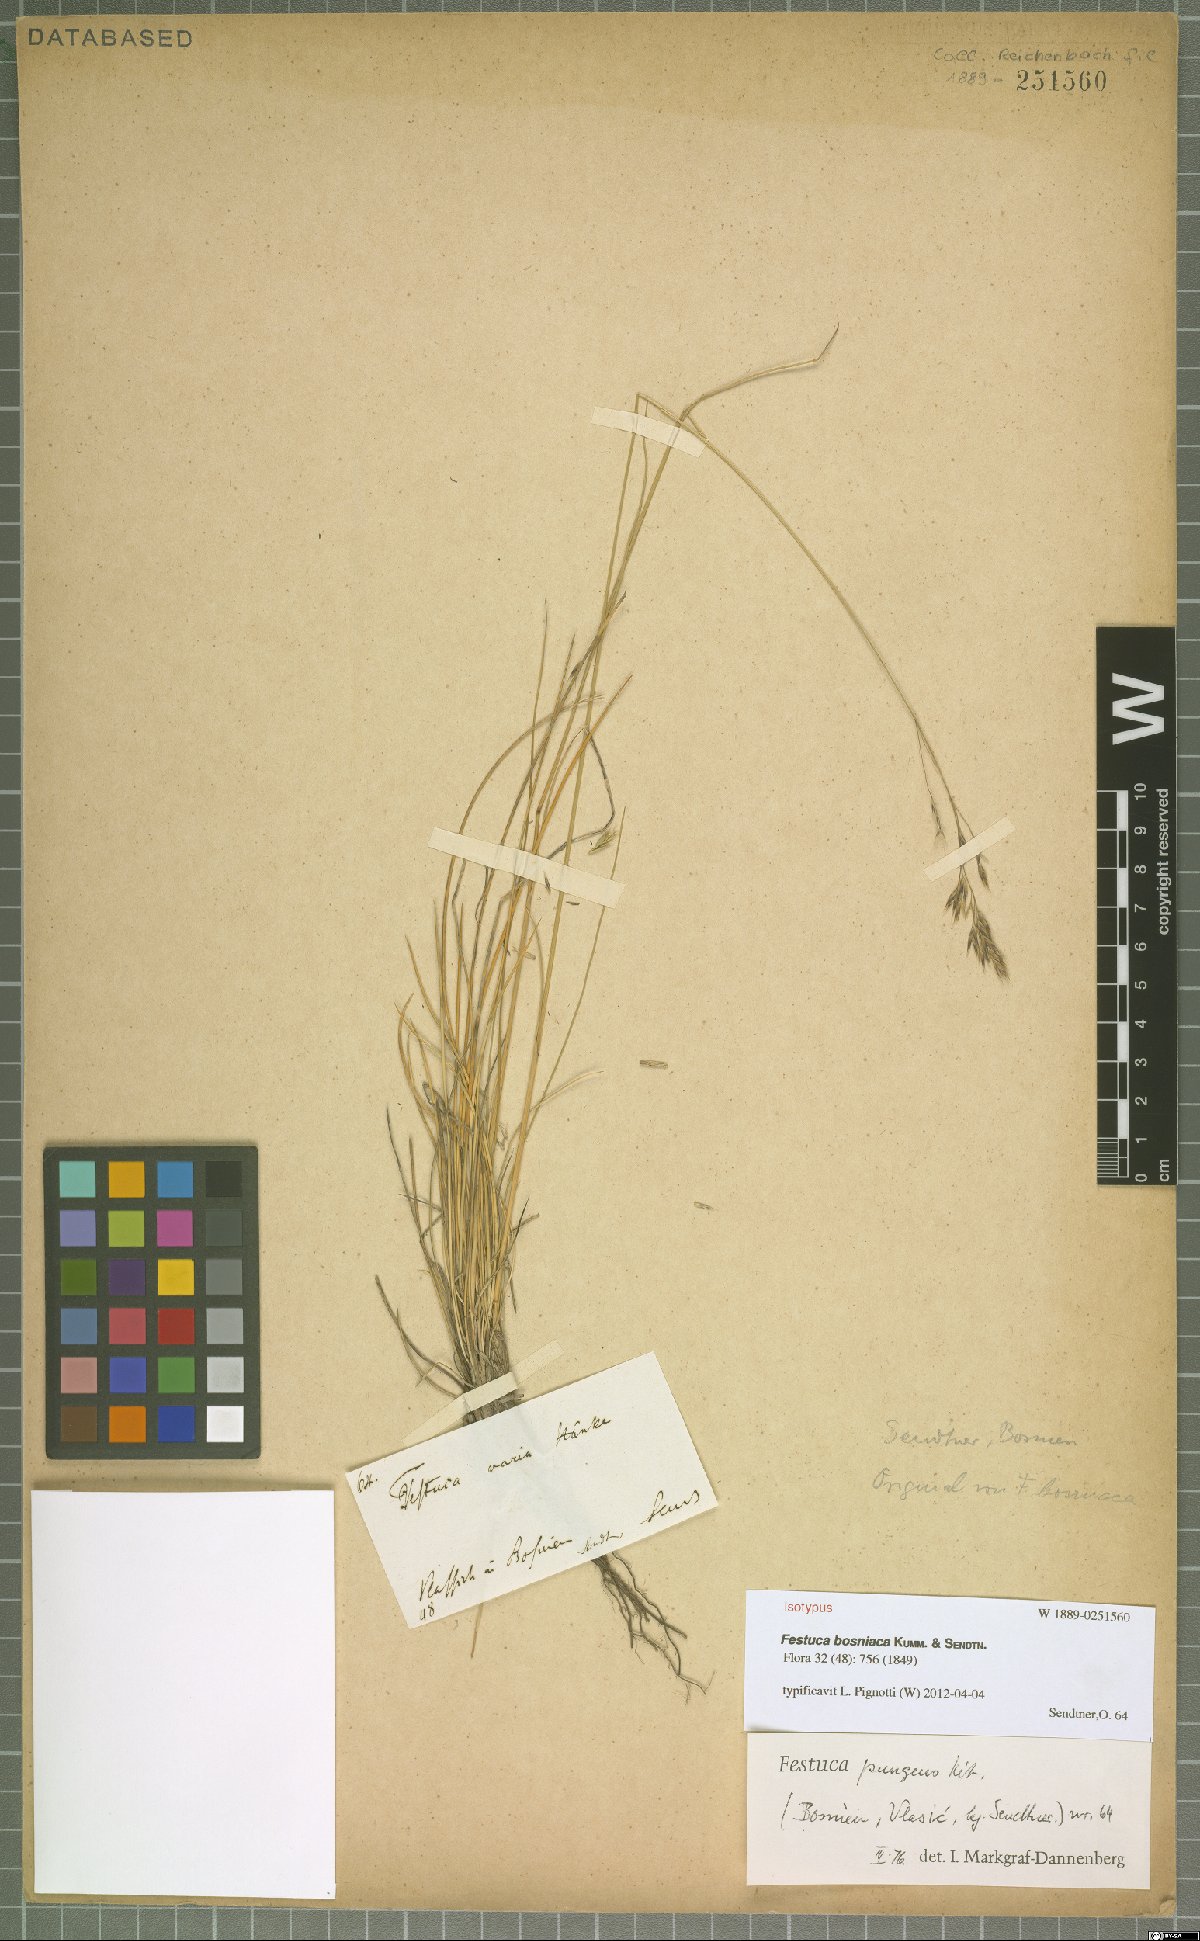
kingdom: Plantae
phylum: Tracheophyta
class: Liliopsida
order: Poales
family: Poaceae
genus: Festuca
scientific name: Festuca bosniaca
